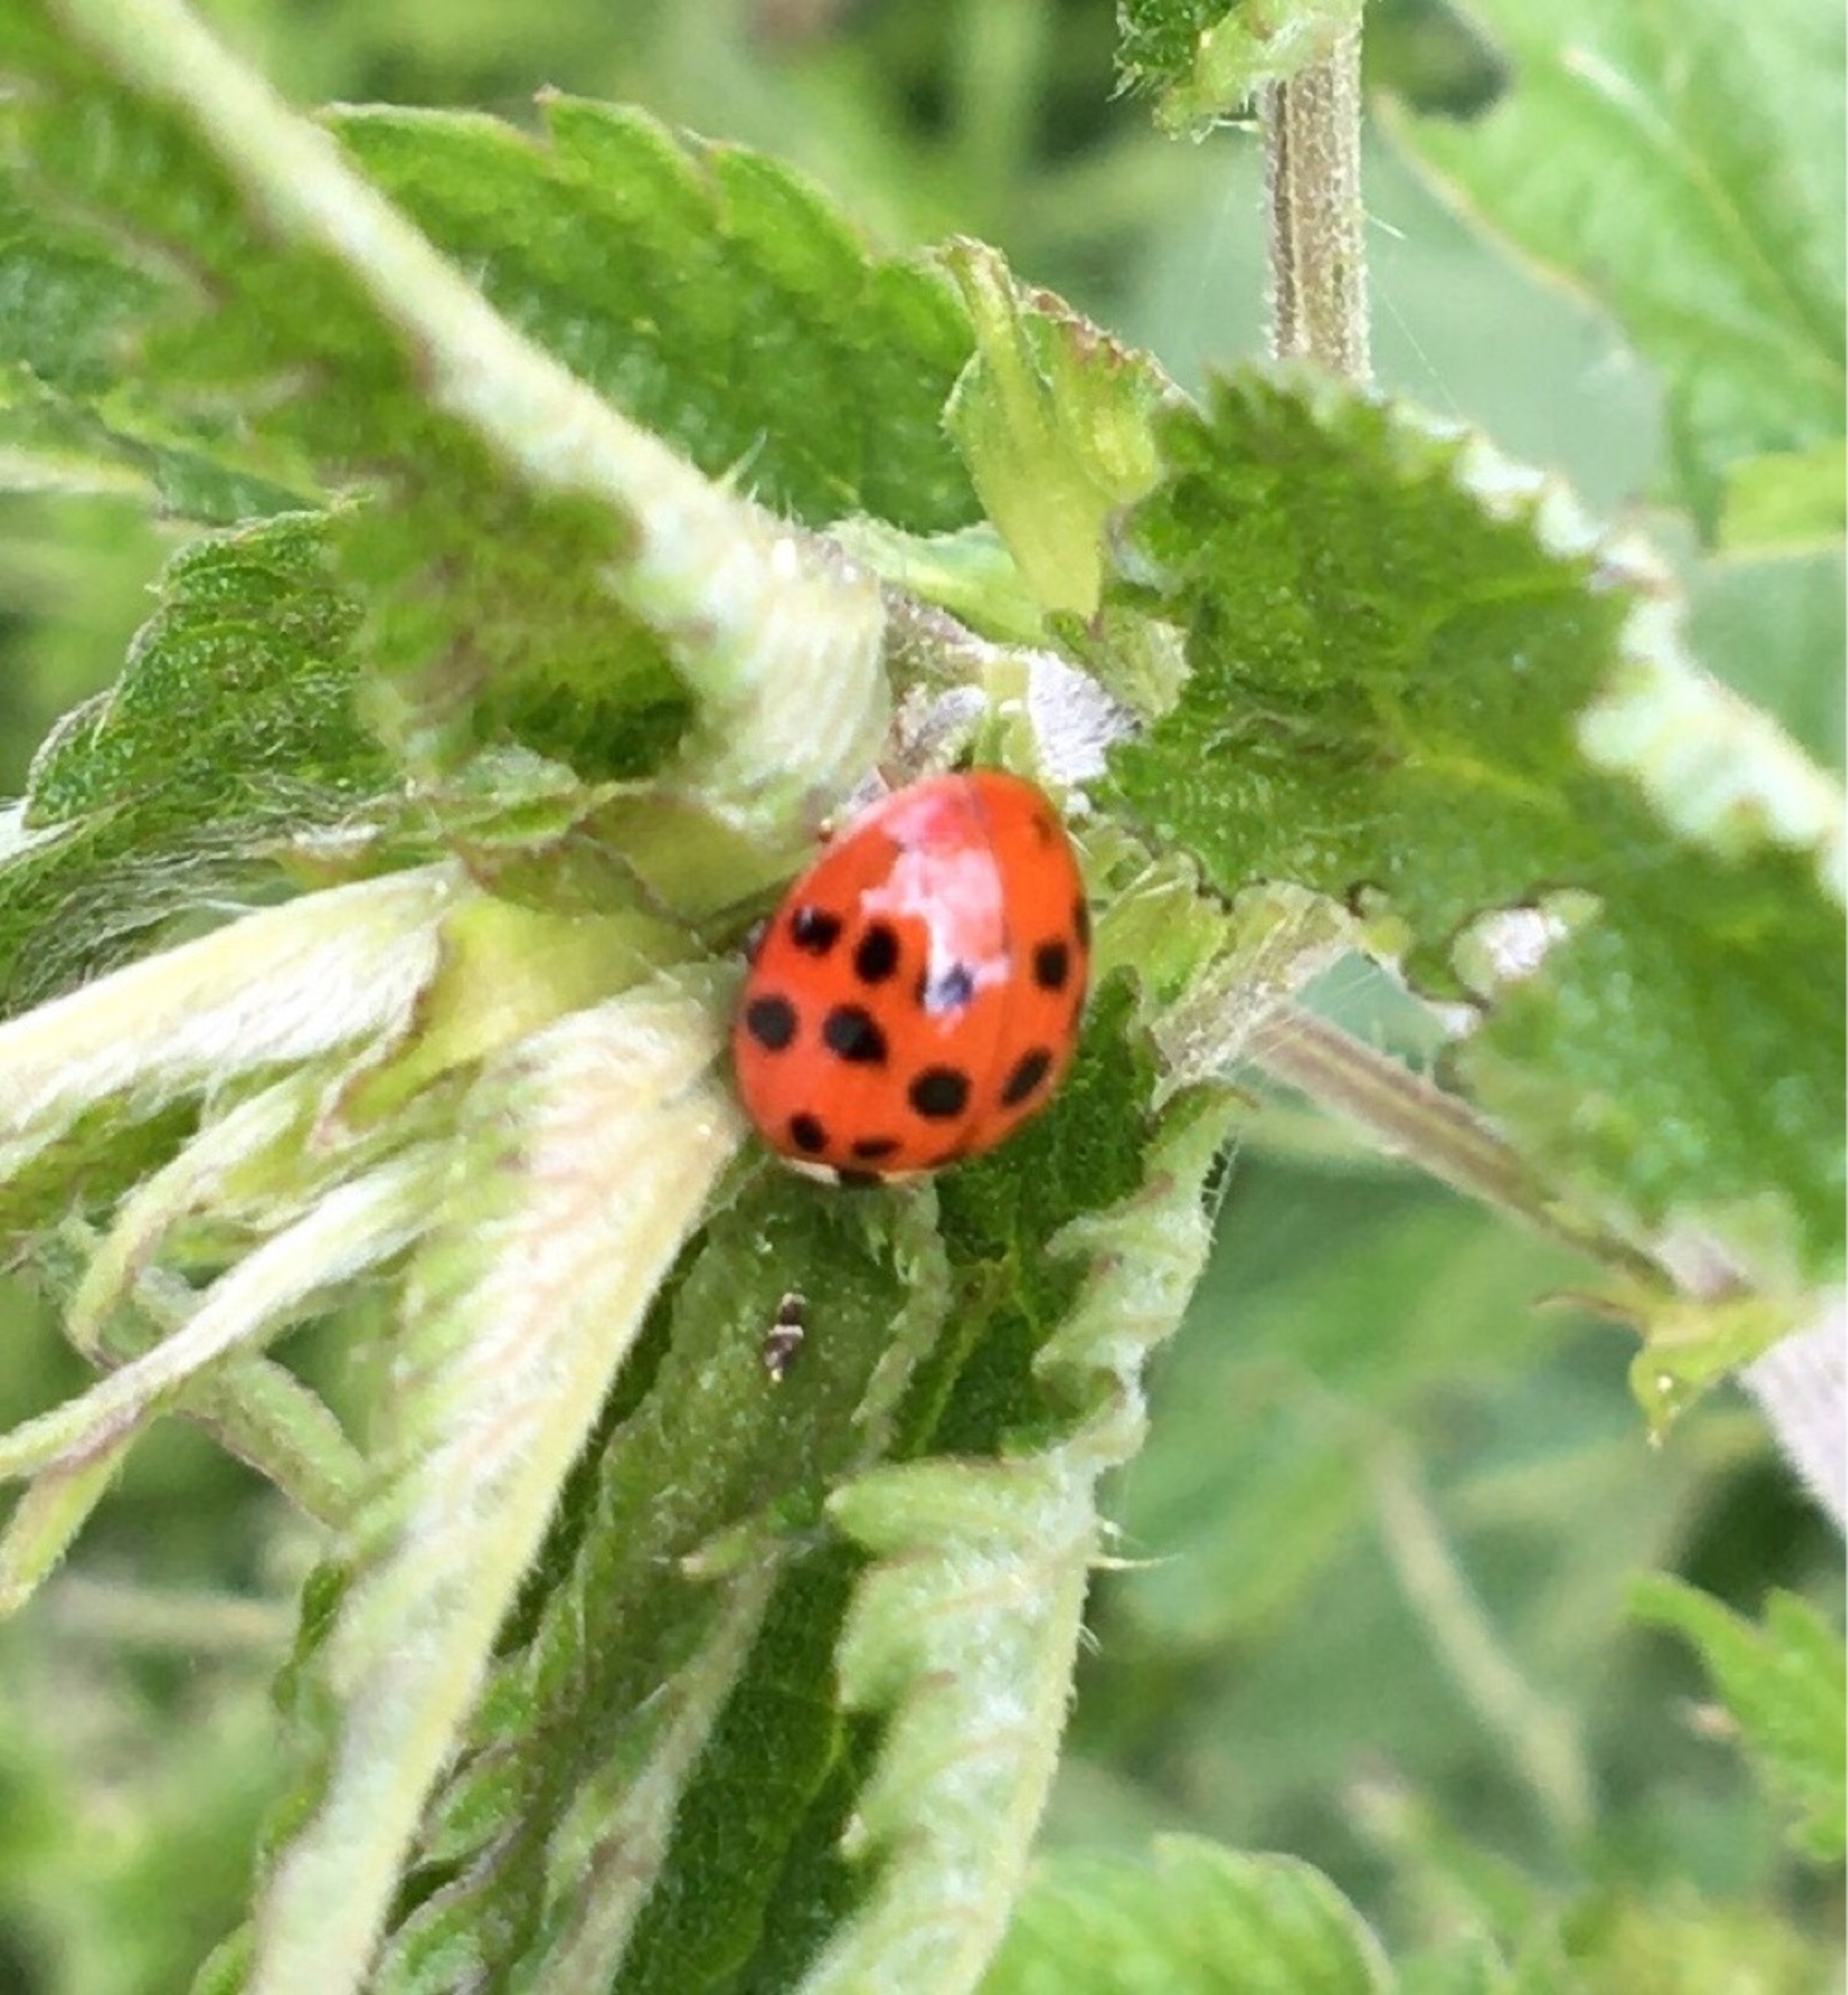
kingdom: Animalia
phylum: Arthropoda
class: Insecta
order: Coleoptera
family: Coccinellidae
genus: Harmonia
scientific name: Harmonia axyridis
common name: Harlekinmariehøne
